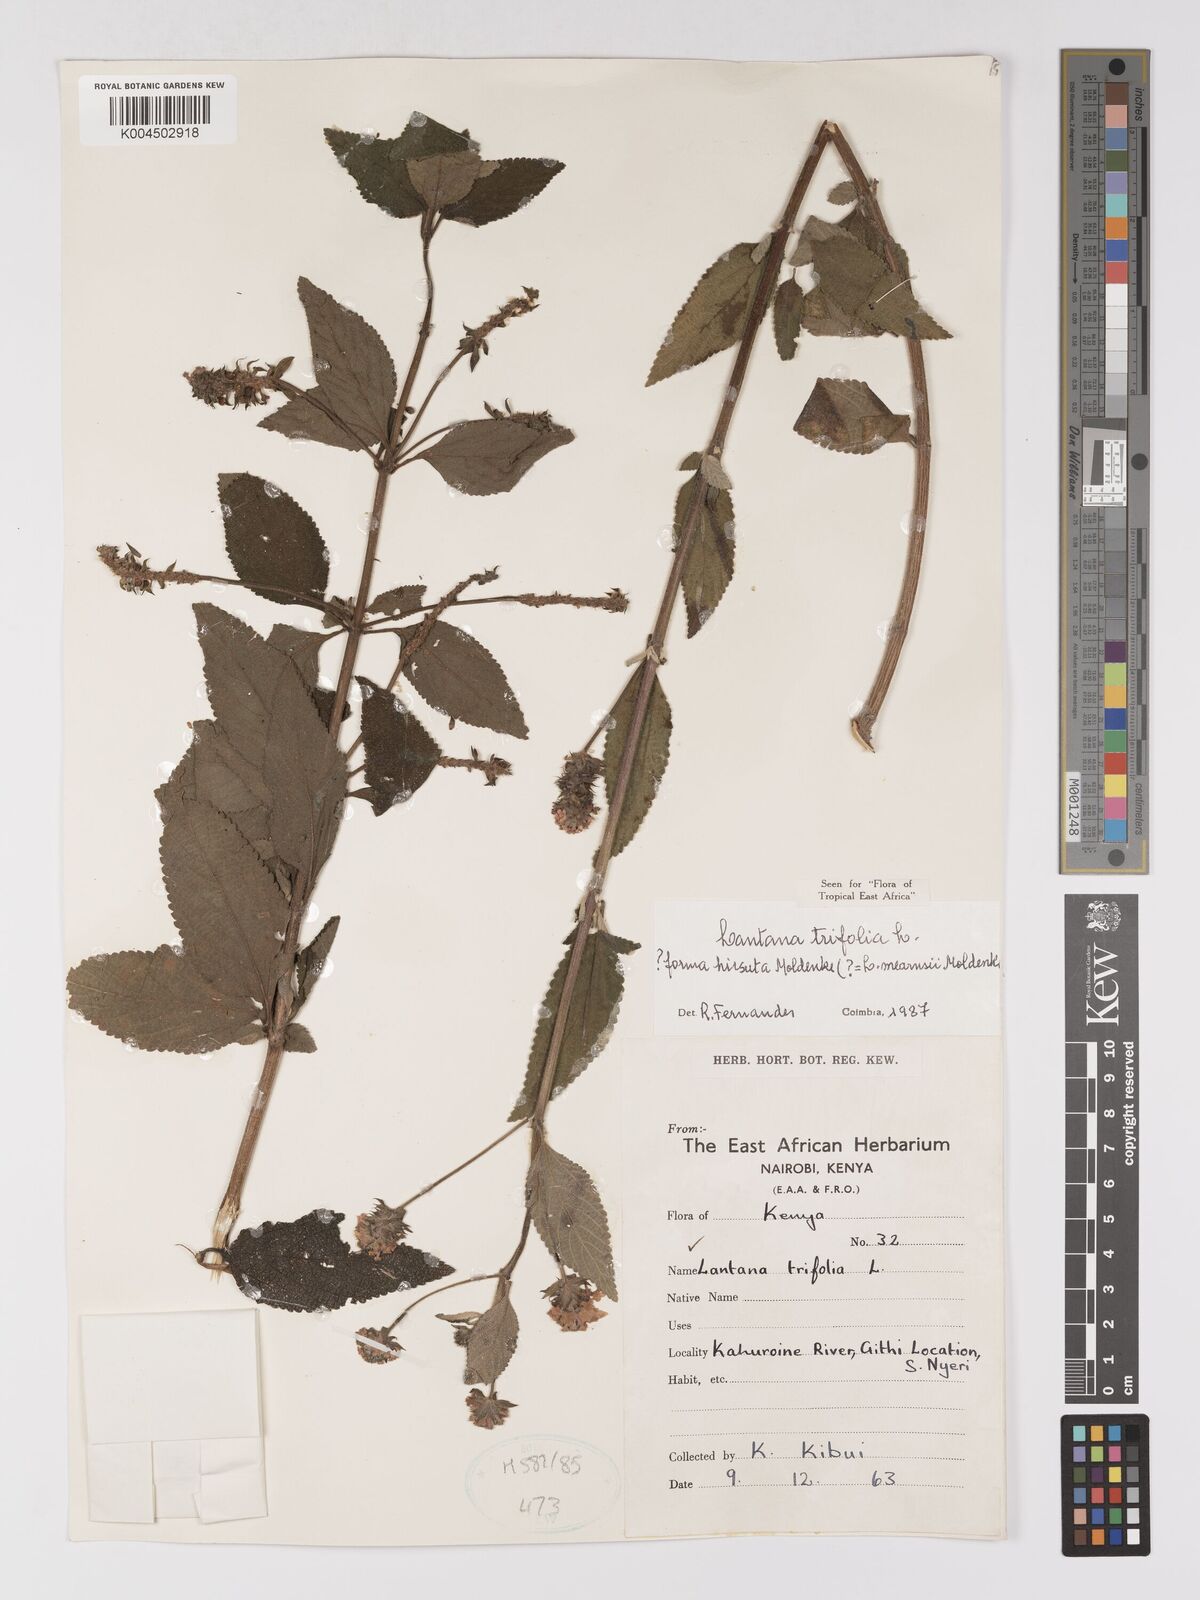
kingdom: Plantae
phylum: Tracheophyta
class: Magnoliopsida
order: Lamiales
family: Verbenaceae
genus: Lantana
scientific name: Lantana trifolia
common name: Sweet-sage
